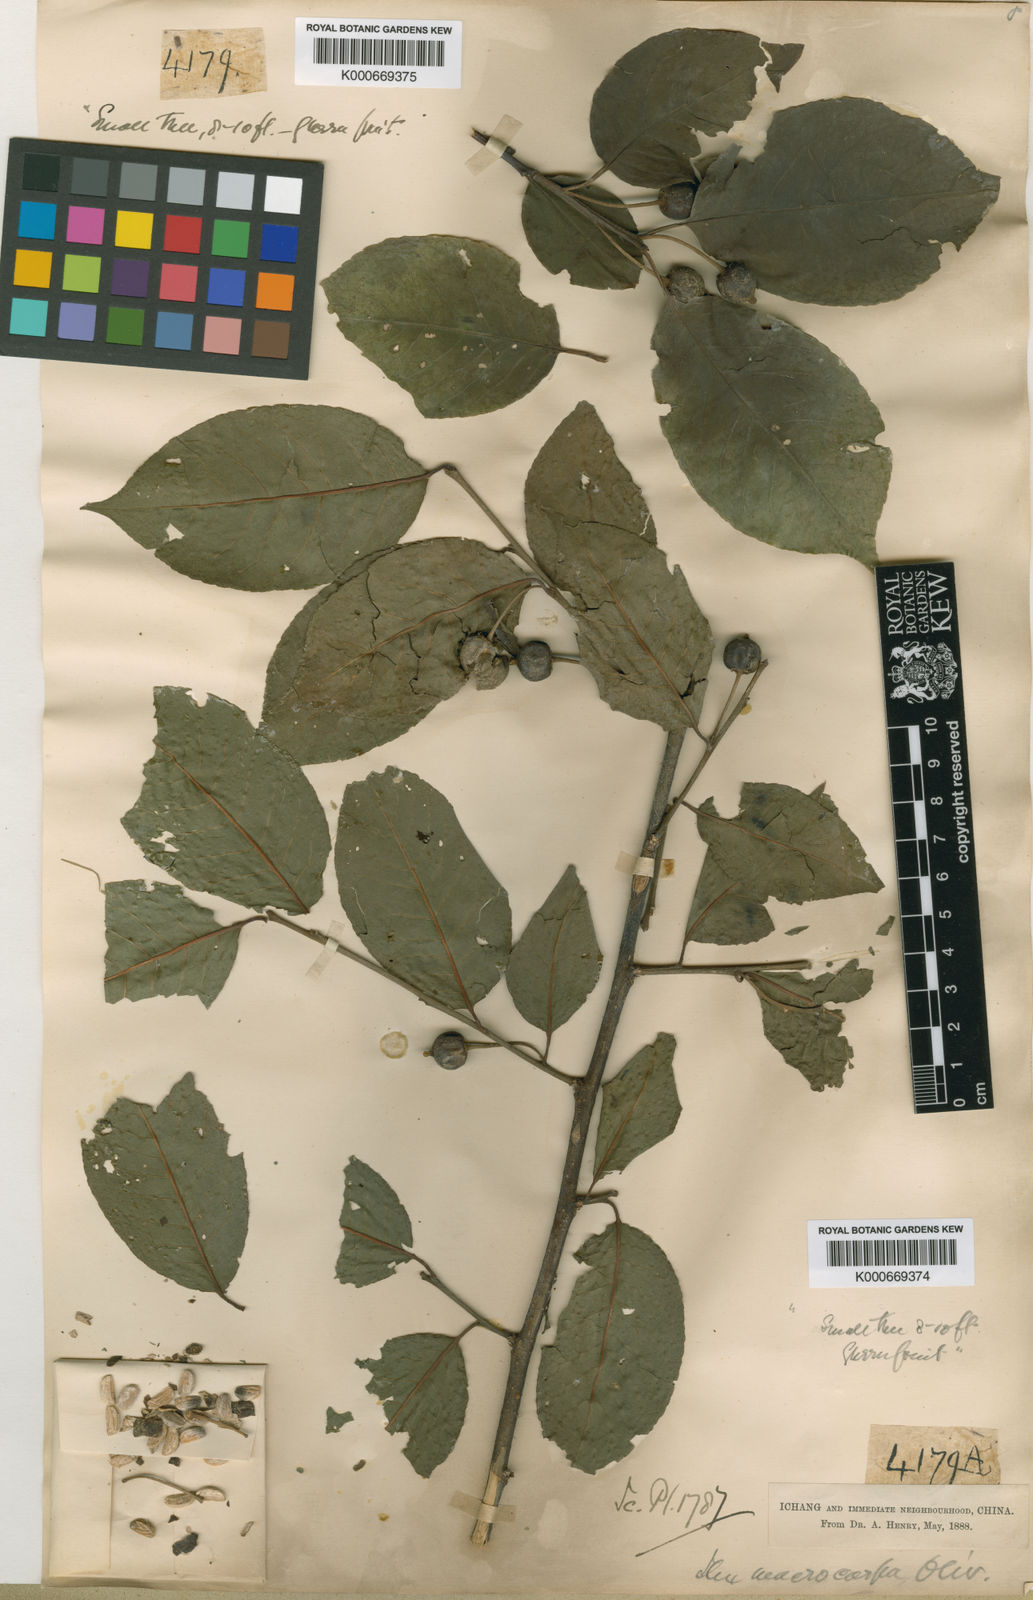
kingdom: Plantae
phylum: Tracheophyta
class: Magnoliopsida
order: Aquifoliales
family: Aquifoliaceae
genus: Ilex
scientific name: Ilex macrocarpa
